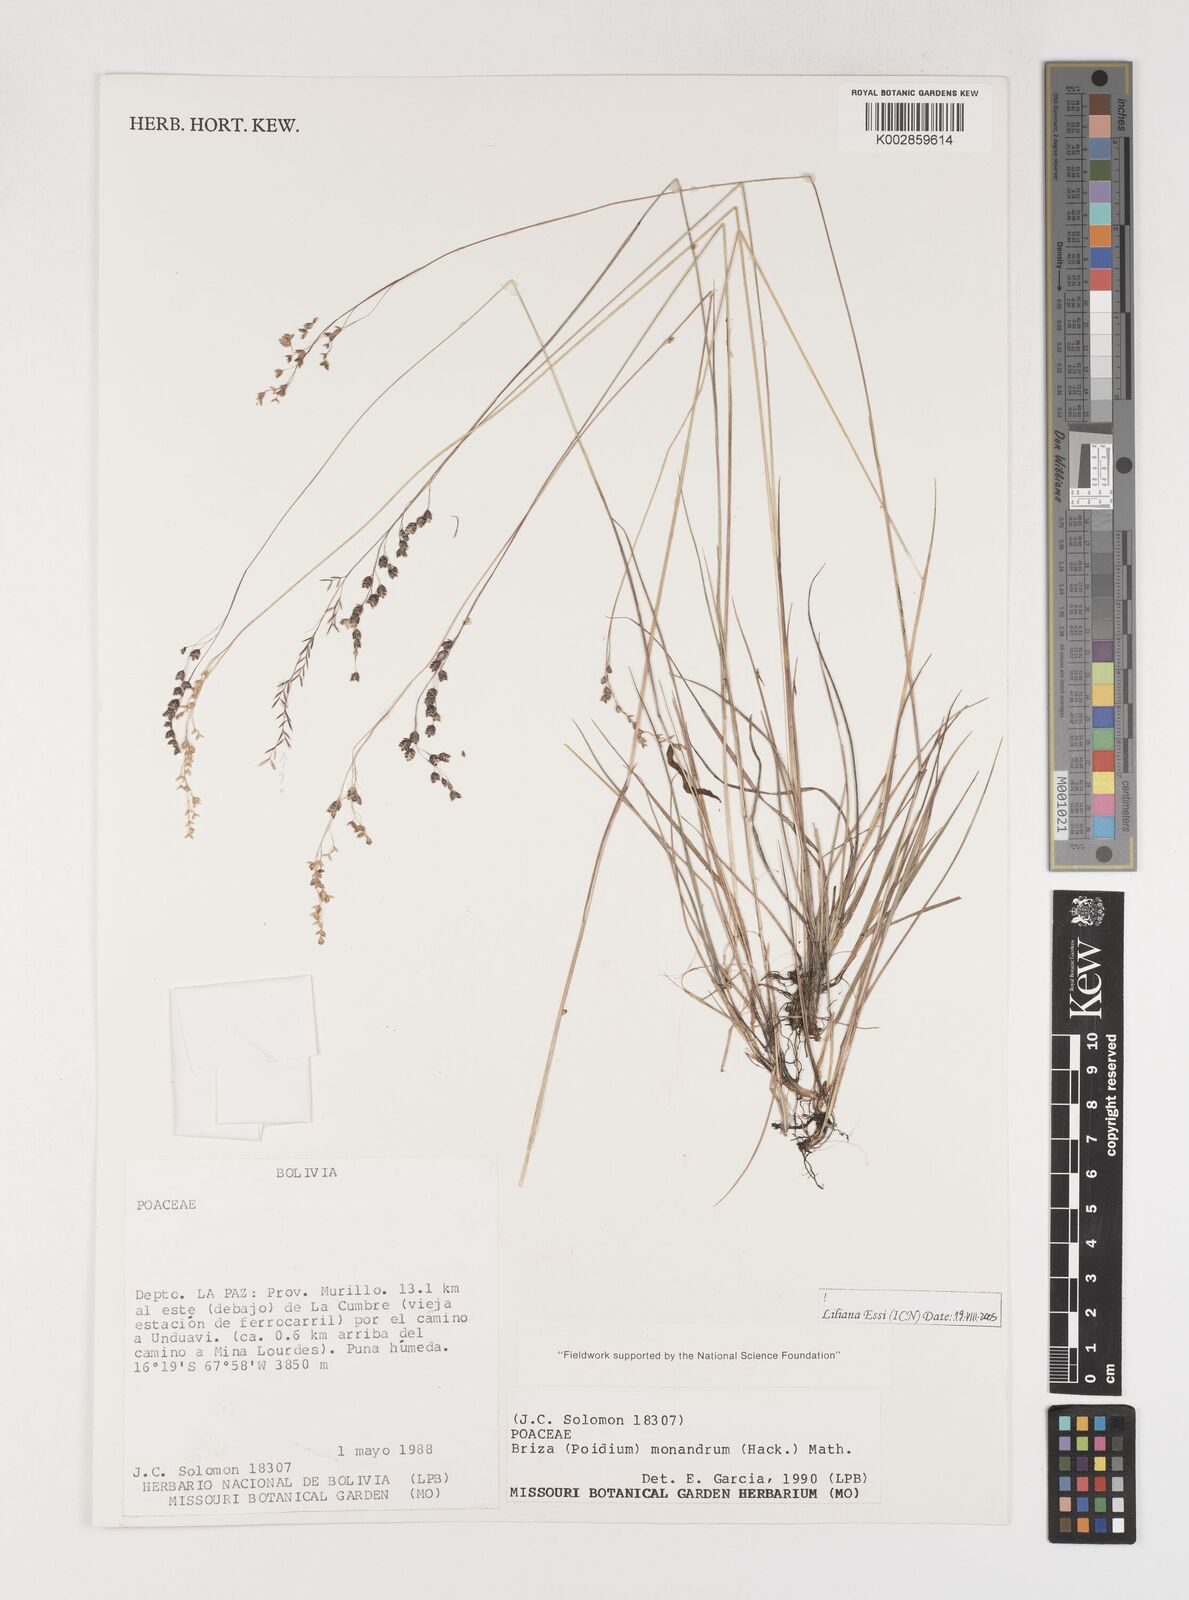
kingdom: Plantae
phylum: Tracheophyta
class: Liliopsida
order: Poales
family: Poaceae
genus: Poidium
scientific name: Poidium monandrum
